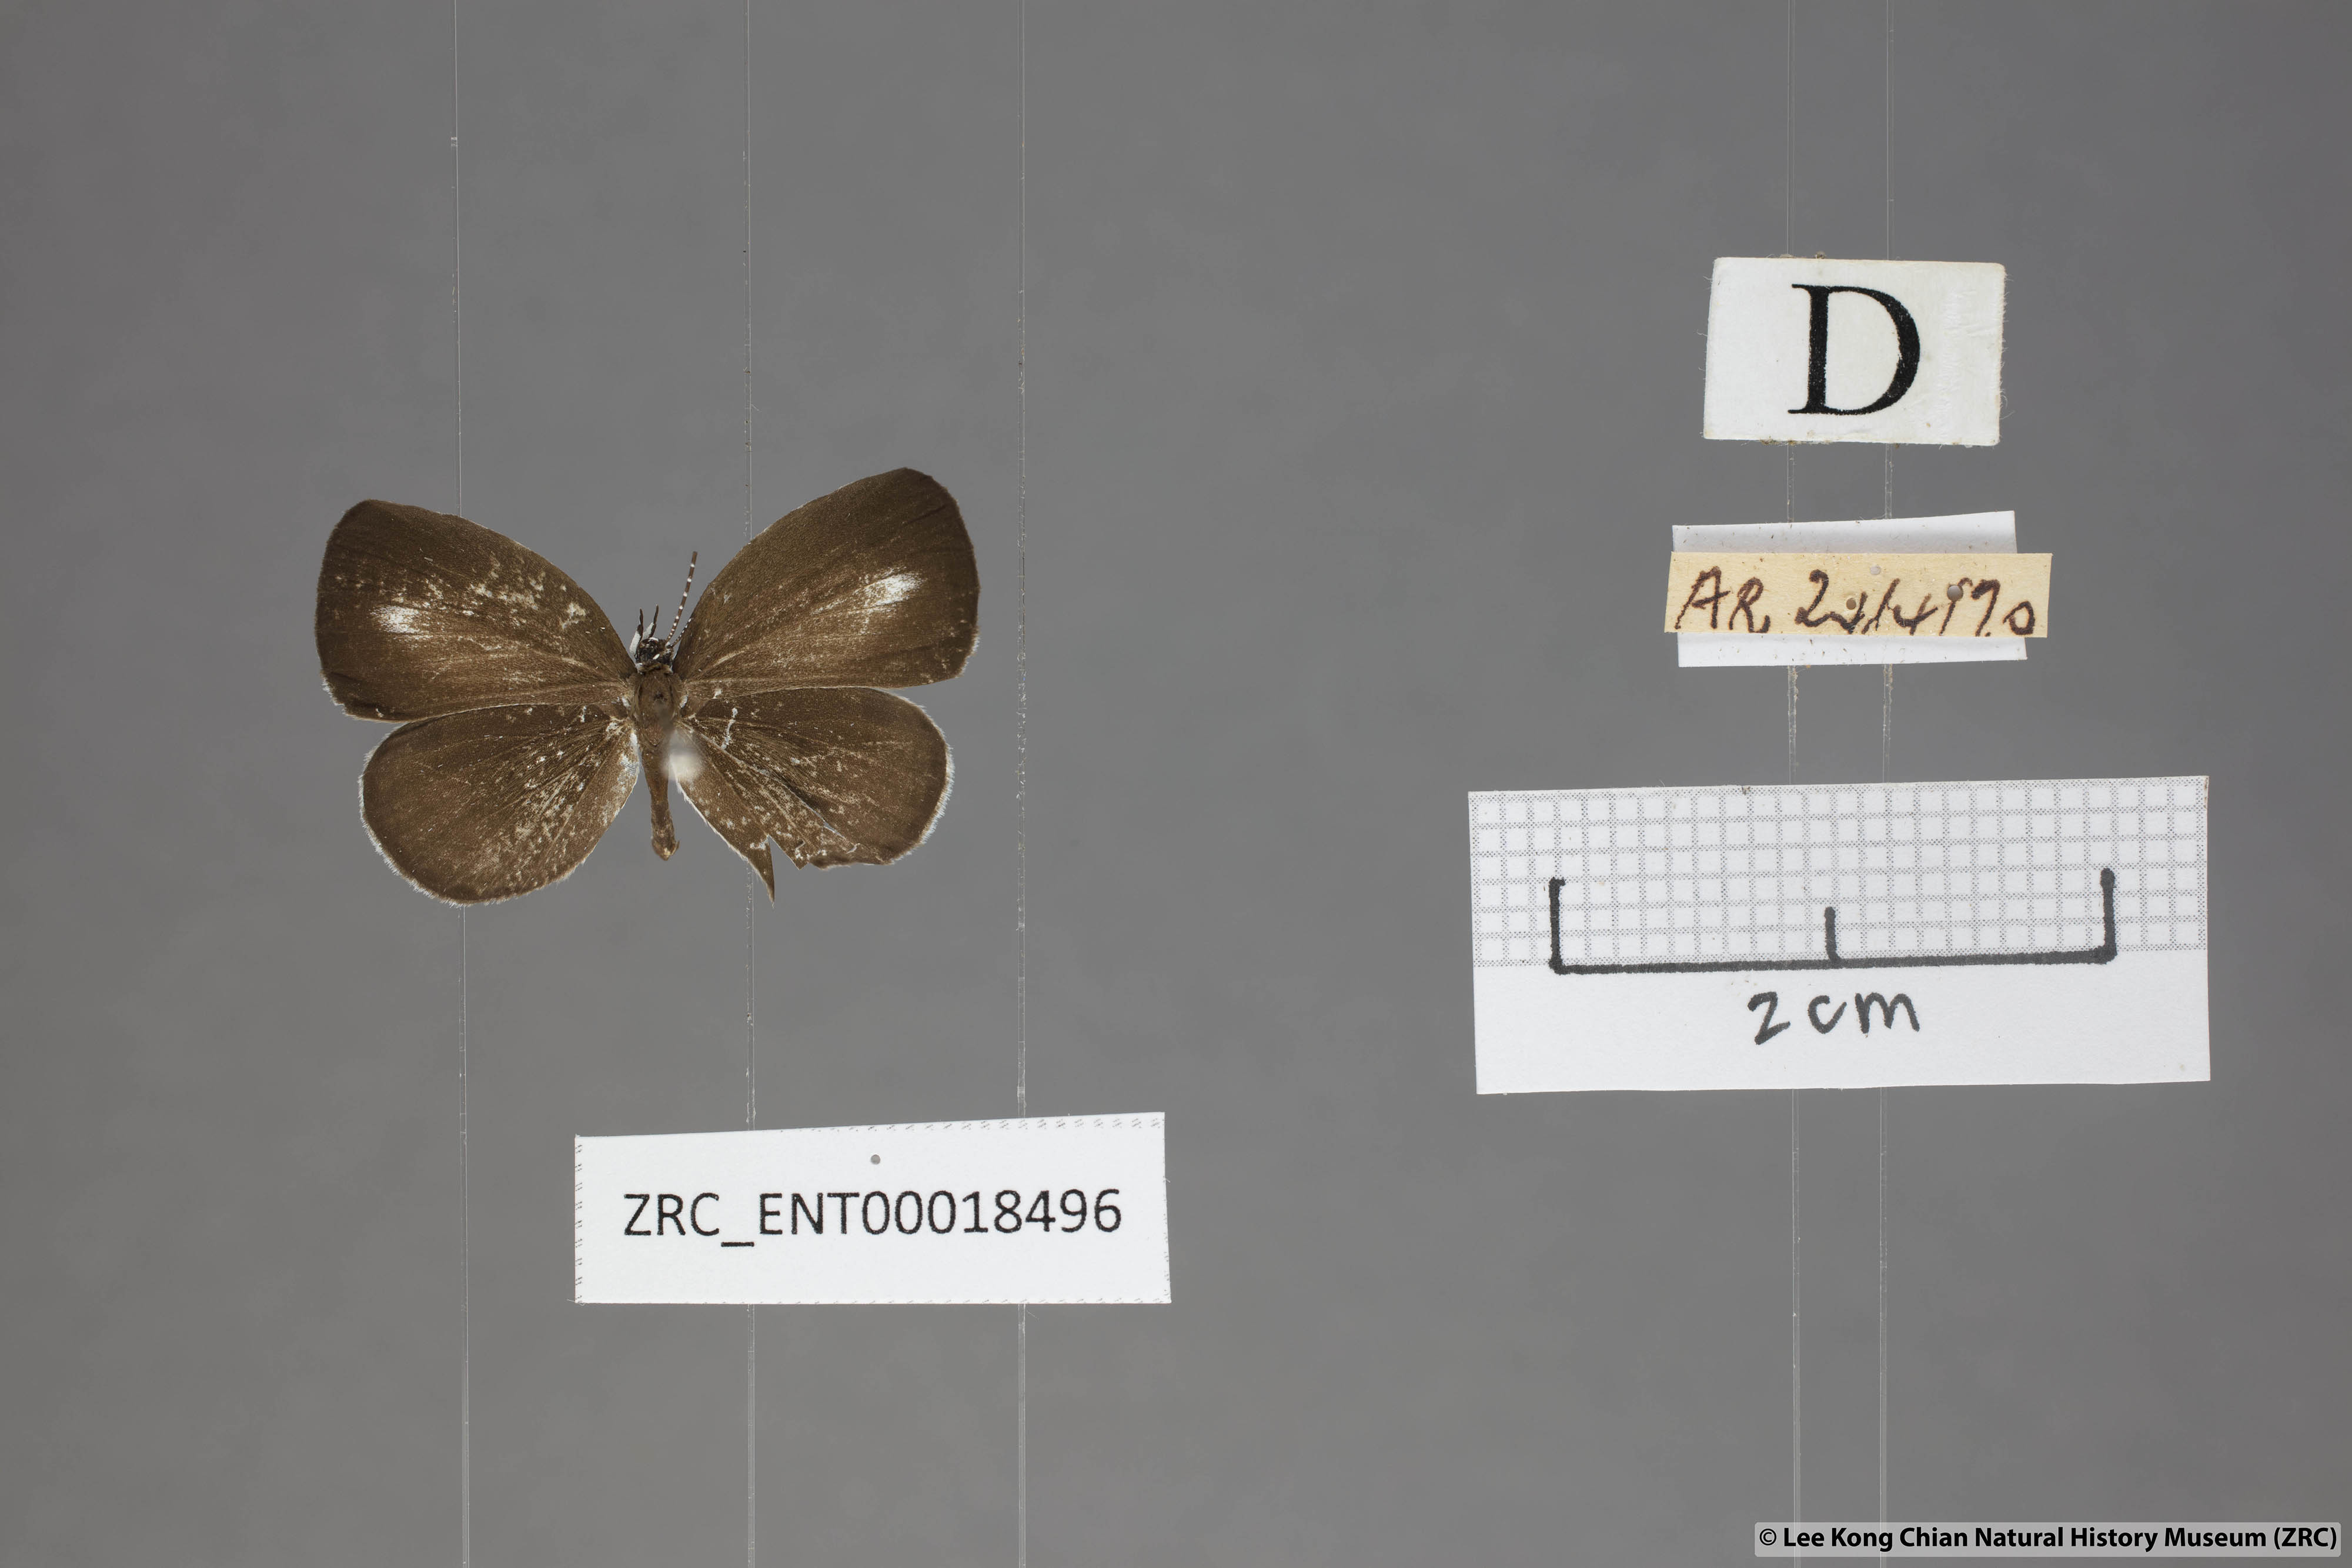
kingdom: Animalia
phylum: Arthropoda
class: Insecta
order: Lepidoptera
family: Lycaenidae
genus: Neopithecops
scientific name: Neopithecops zalmora
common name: Quaker
